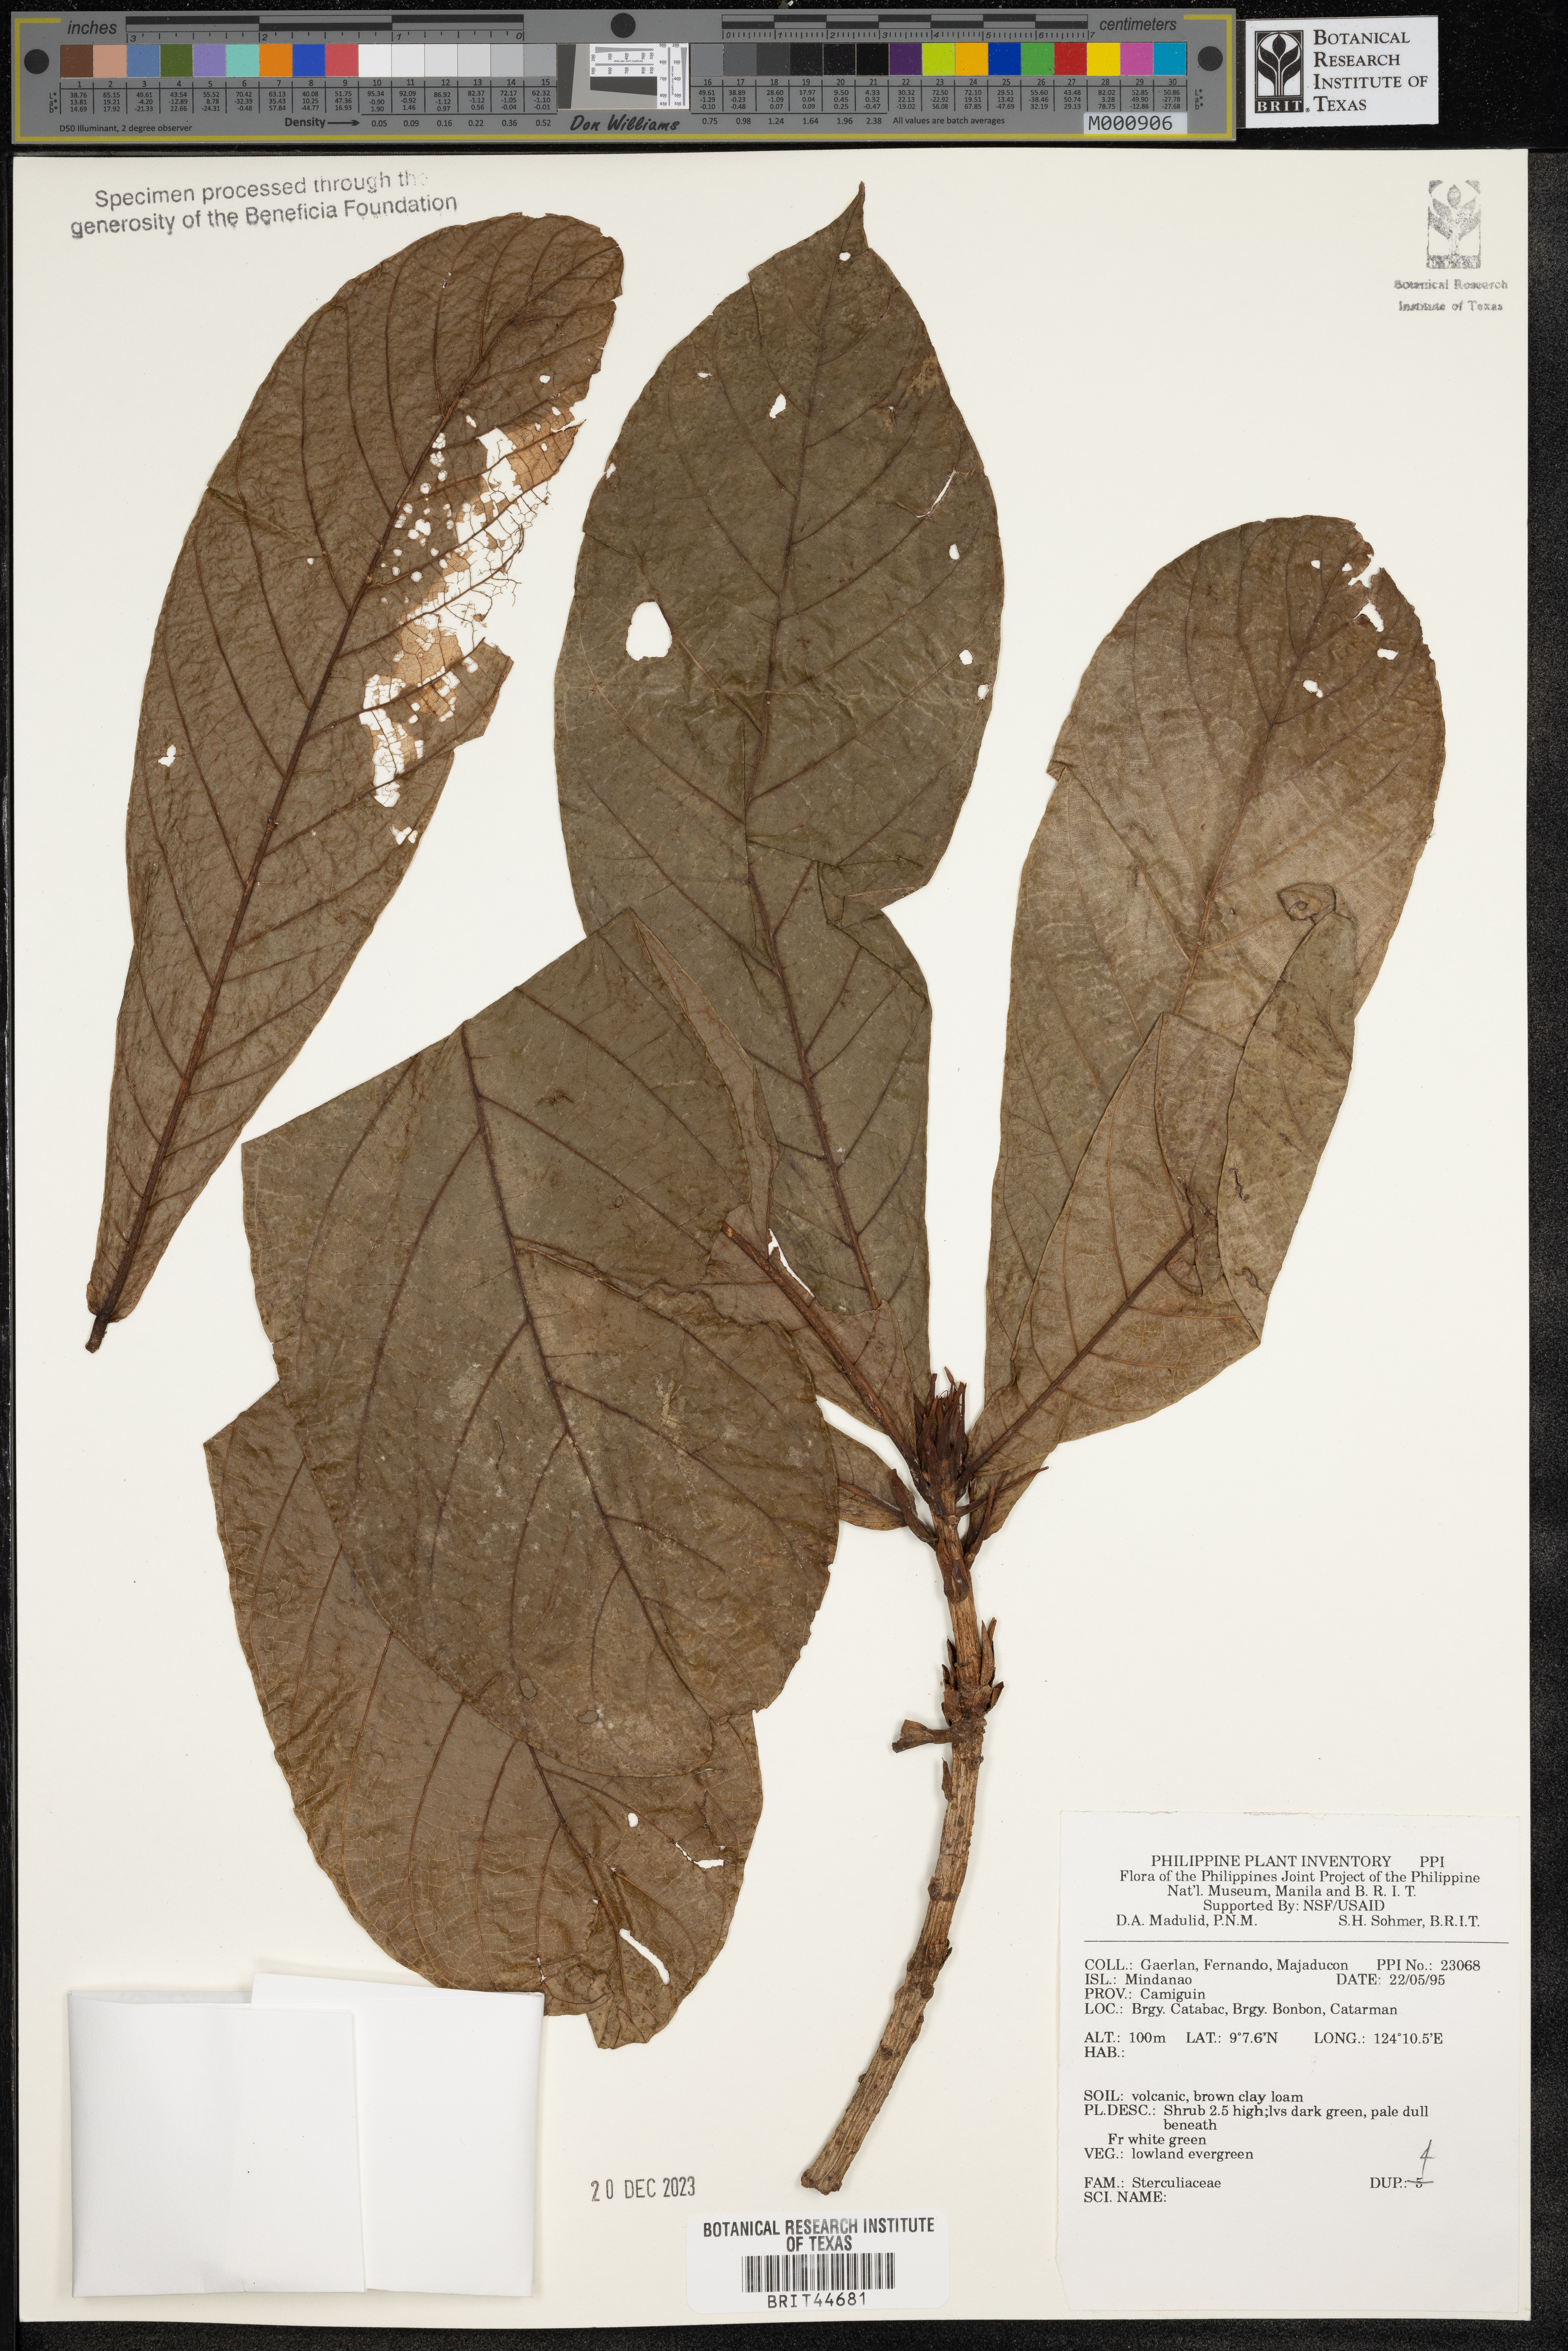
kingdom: Plantae
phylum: Tracheophyta
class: Magnoliopsida
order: Malvales
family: Sterculiaceae
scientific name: Sterculiaceae
